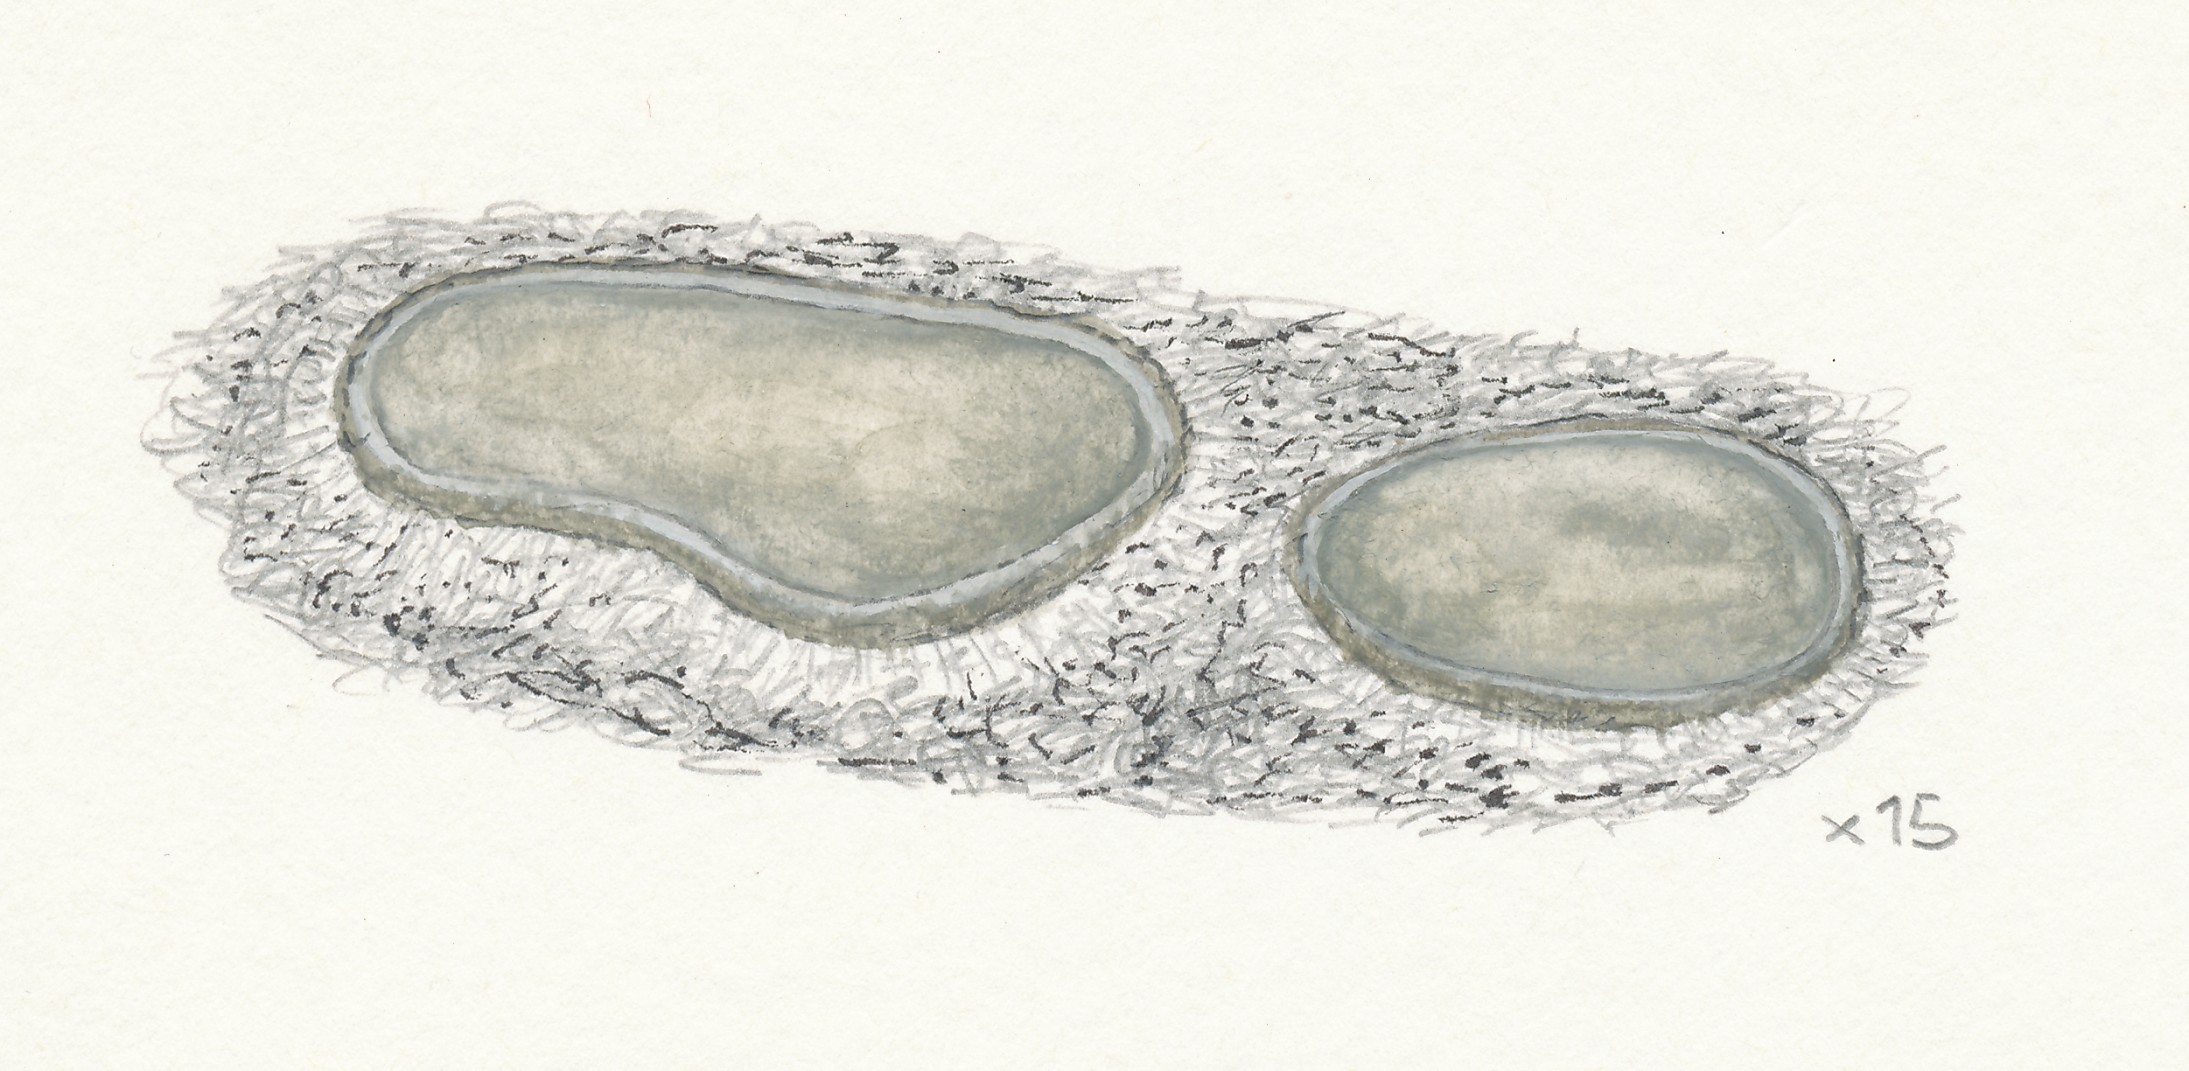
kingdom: Fungi
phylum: Ascomycota
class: Leotiomycetes
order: Helotiales
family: Mollisiaceae
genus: Mollisia
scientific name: Mollisia strobilicola
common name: kogle-gråskive
